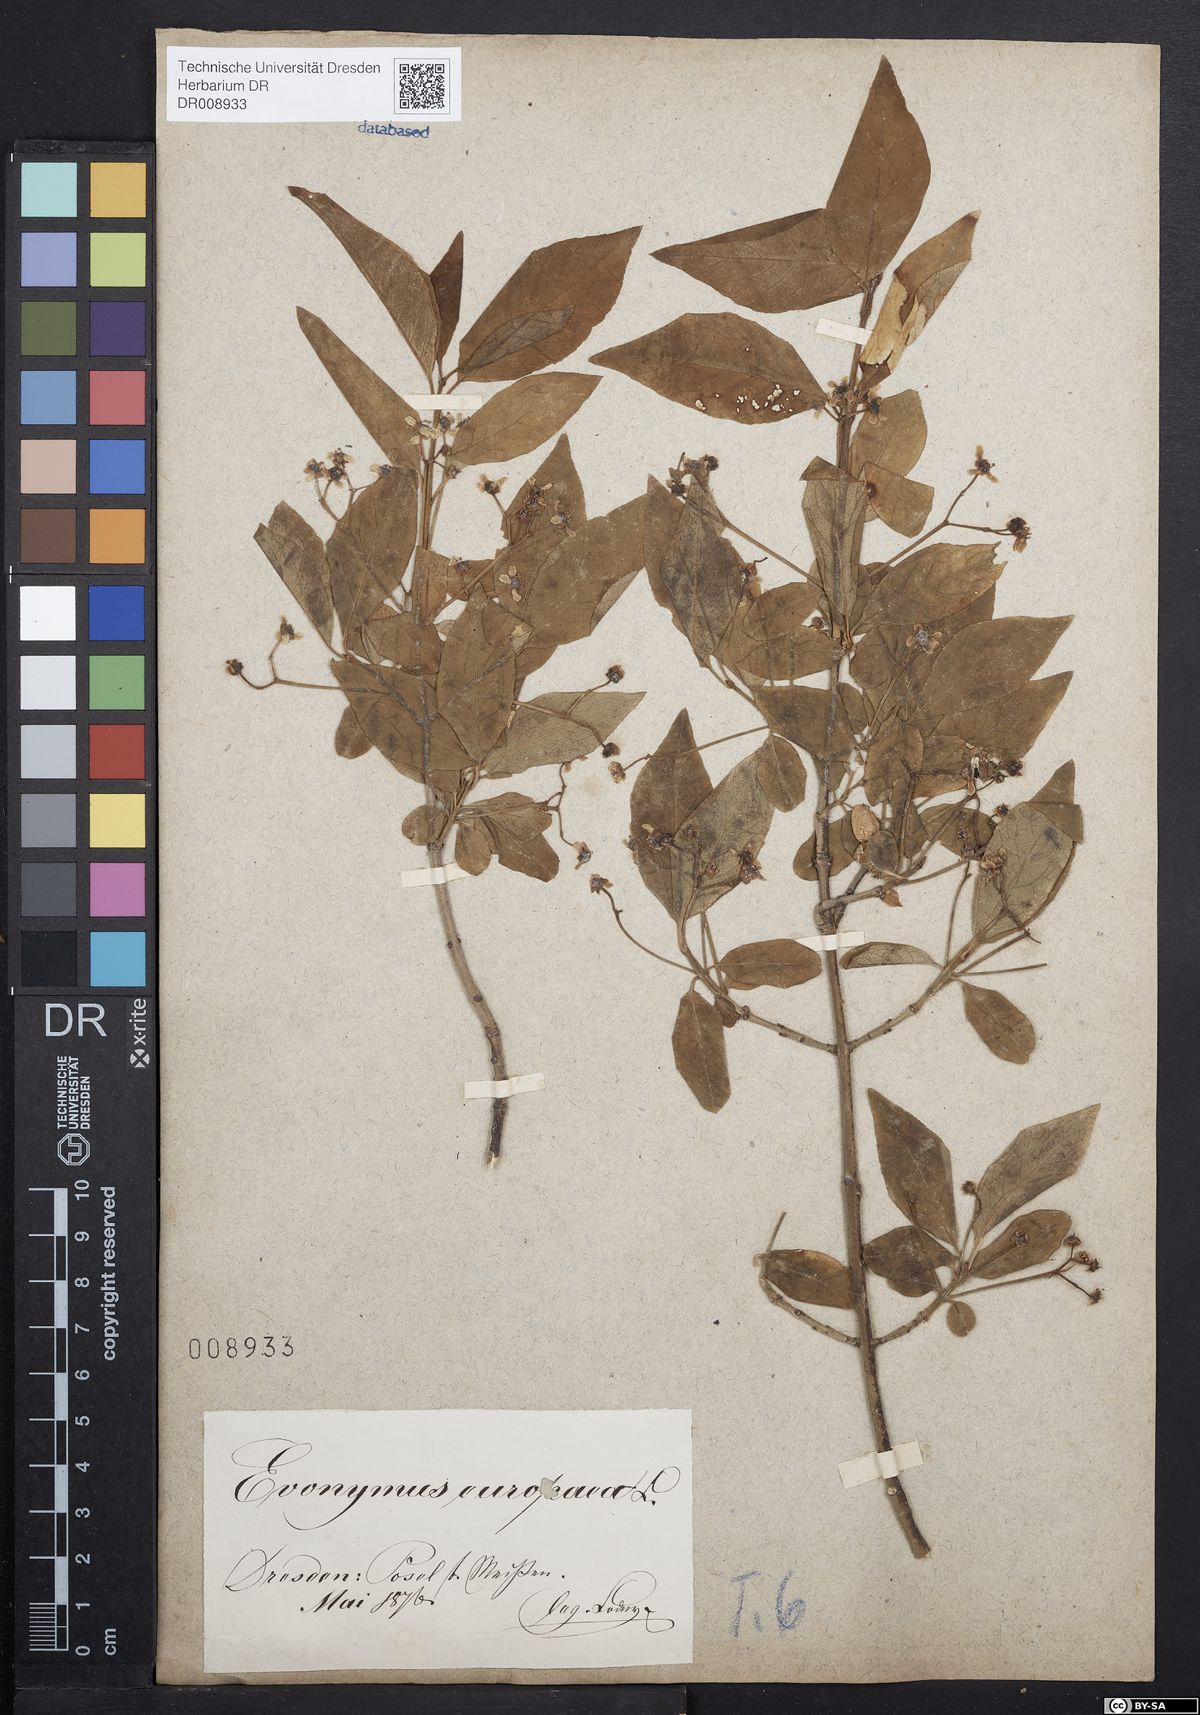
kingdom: Plantae
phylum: Tracheophyta
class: Magnoliopsida
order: Celastrales
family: Celastraceae
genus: Euonymus
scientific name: Euonymus europaeus
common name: Spindle
